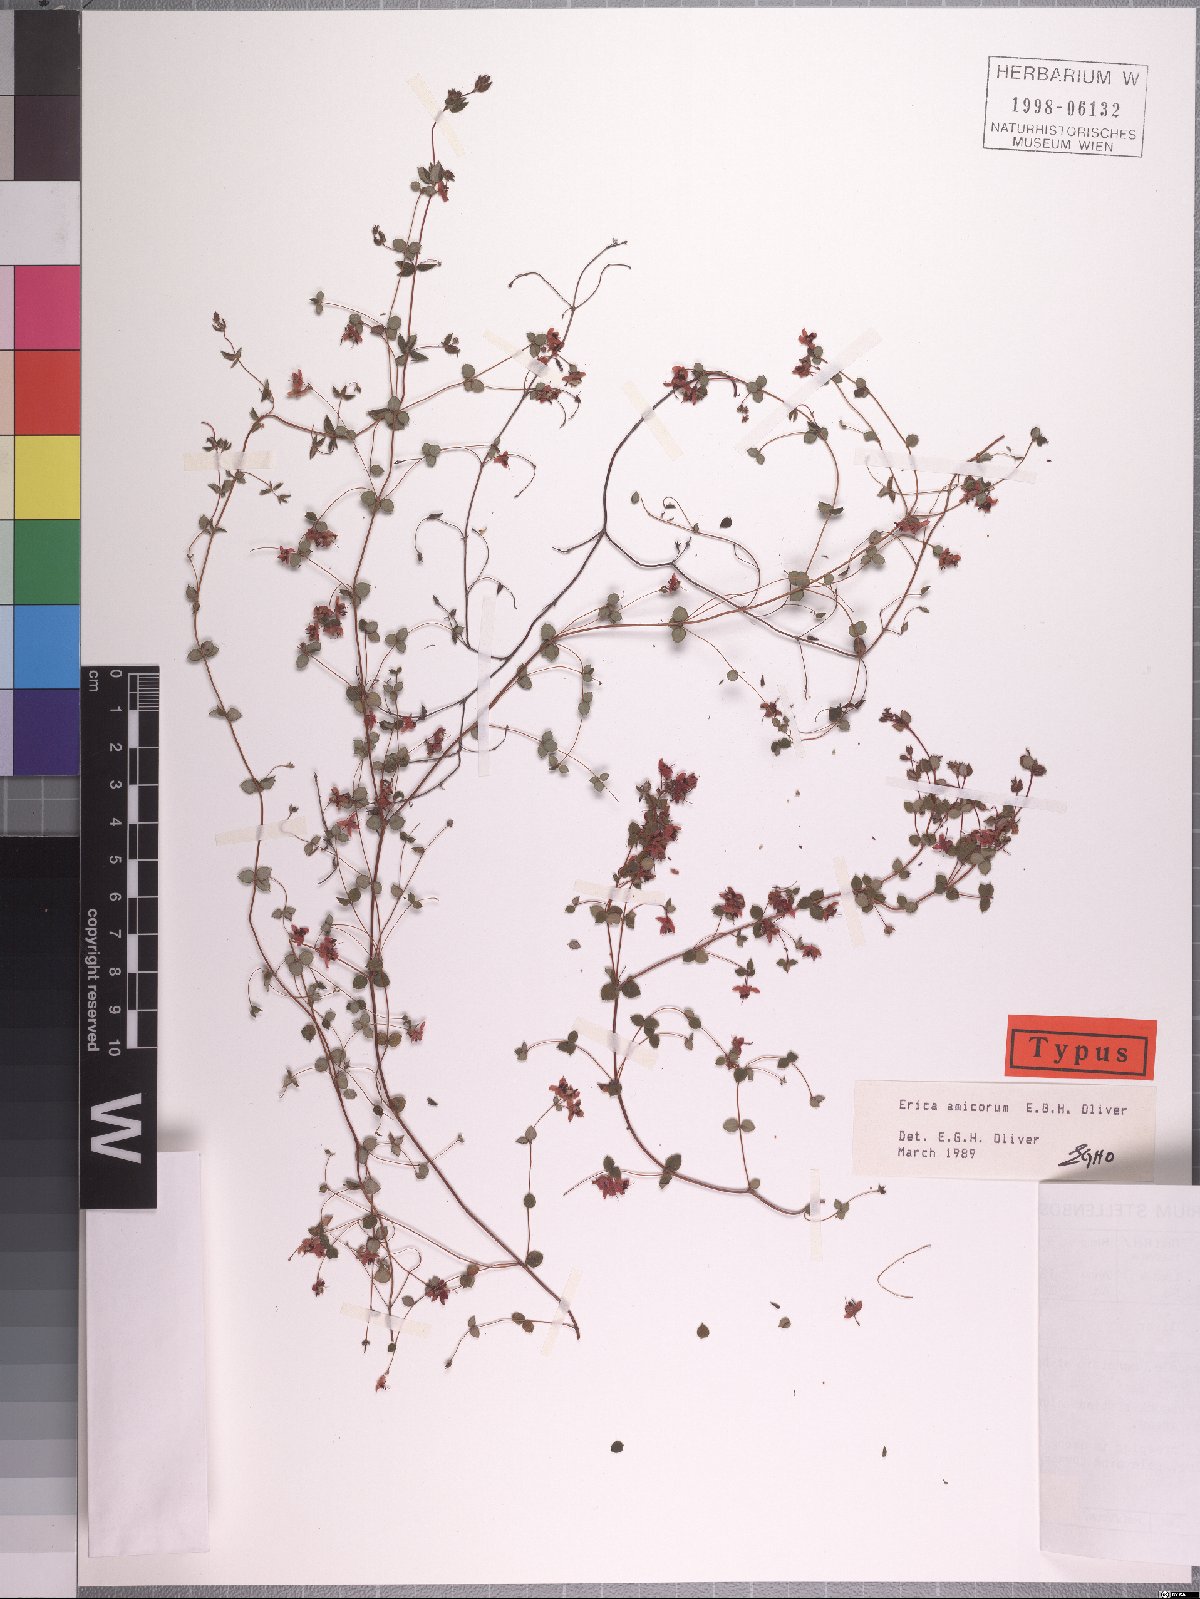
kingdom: Plantae
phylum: Tracheophyta
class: Magnoliopsida
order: Ericales
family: Ericaceae
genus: Erica
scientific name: Erica amicorum
